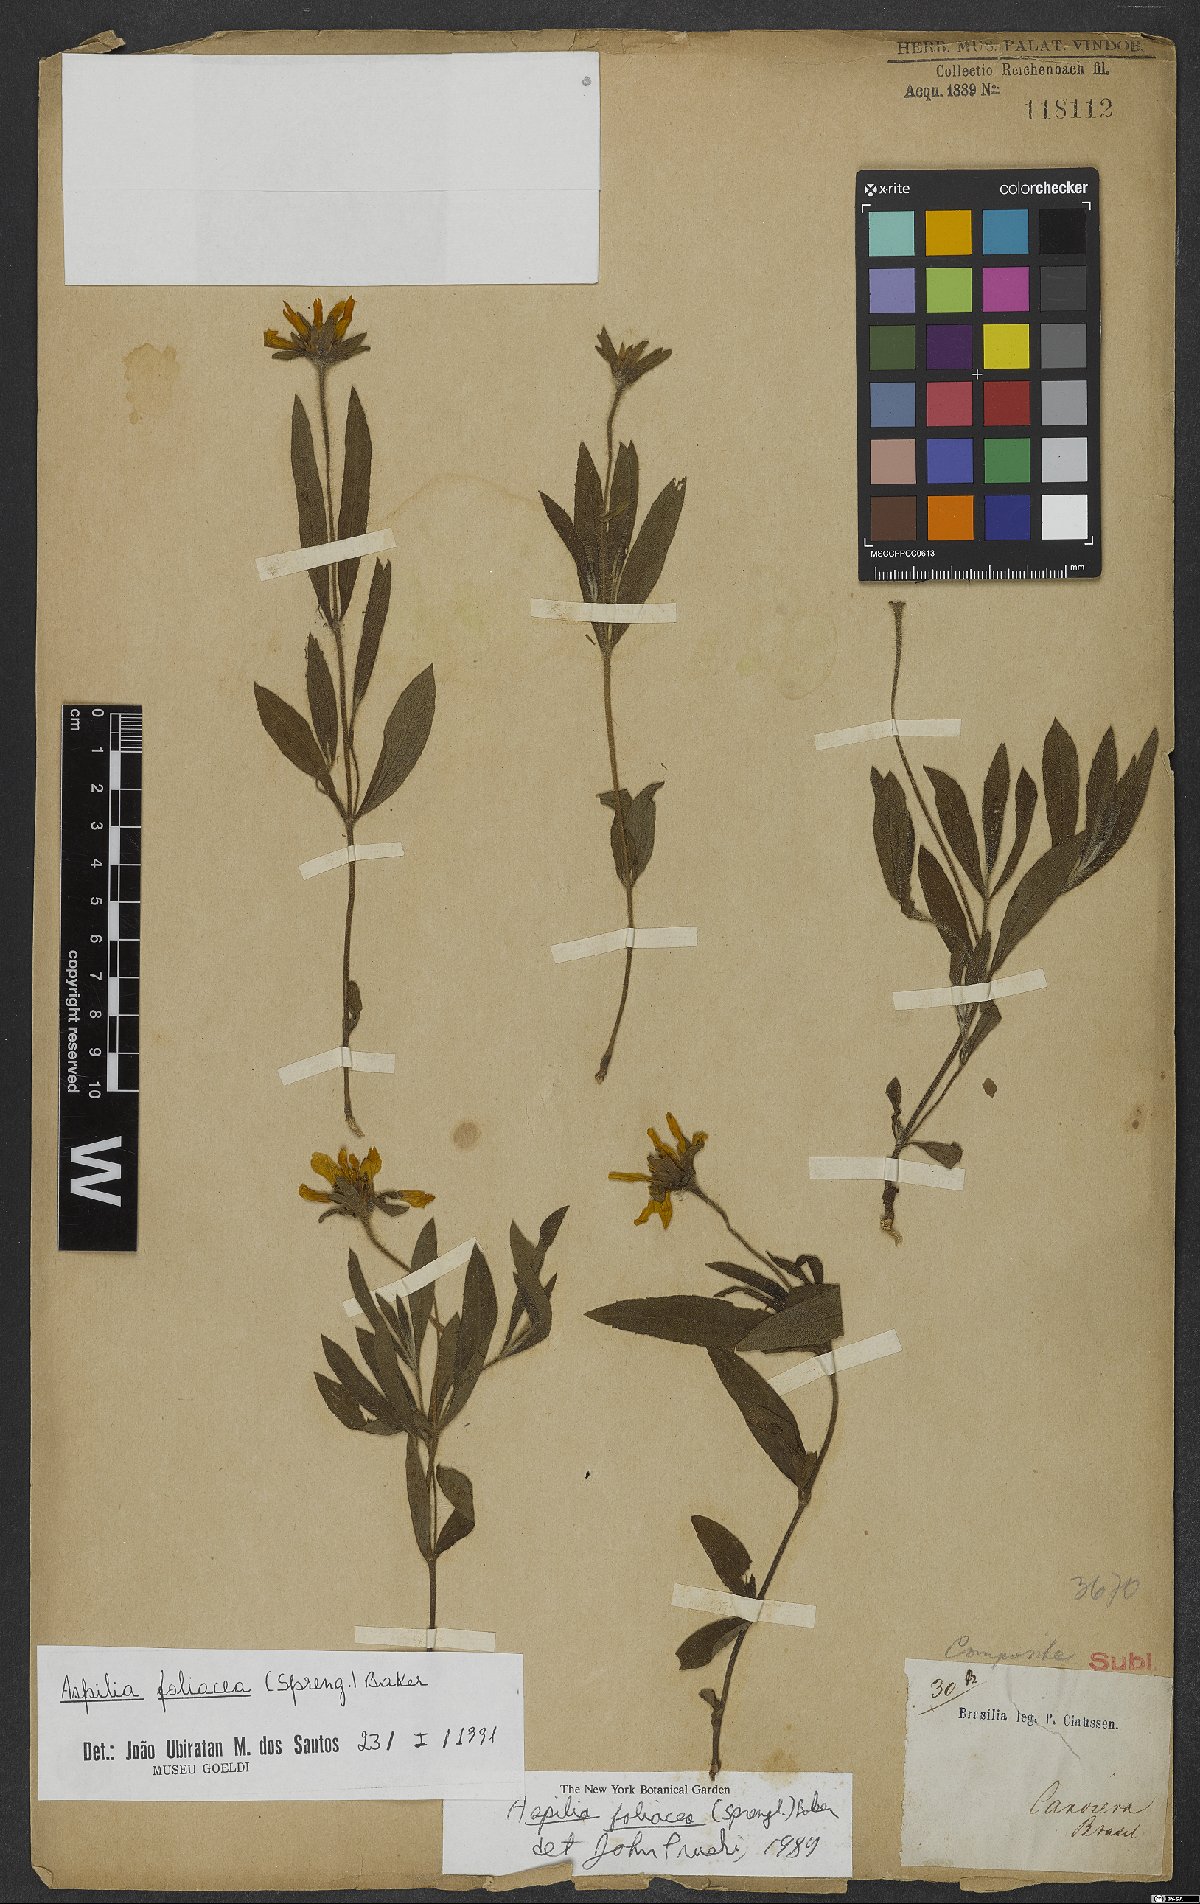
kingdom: Plantae
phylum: Tracheophyta
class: Magnoliopsida
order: Asterales
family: Asteraceae
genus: Aspilia
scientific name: Aspilia foliosa
